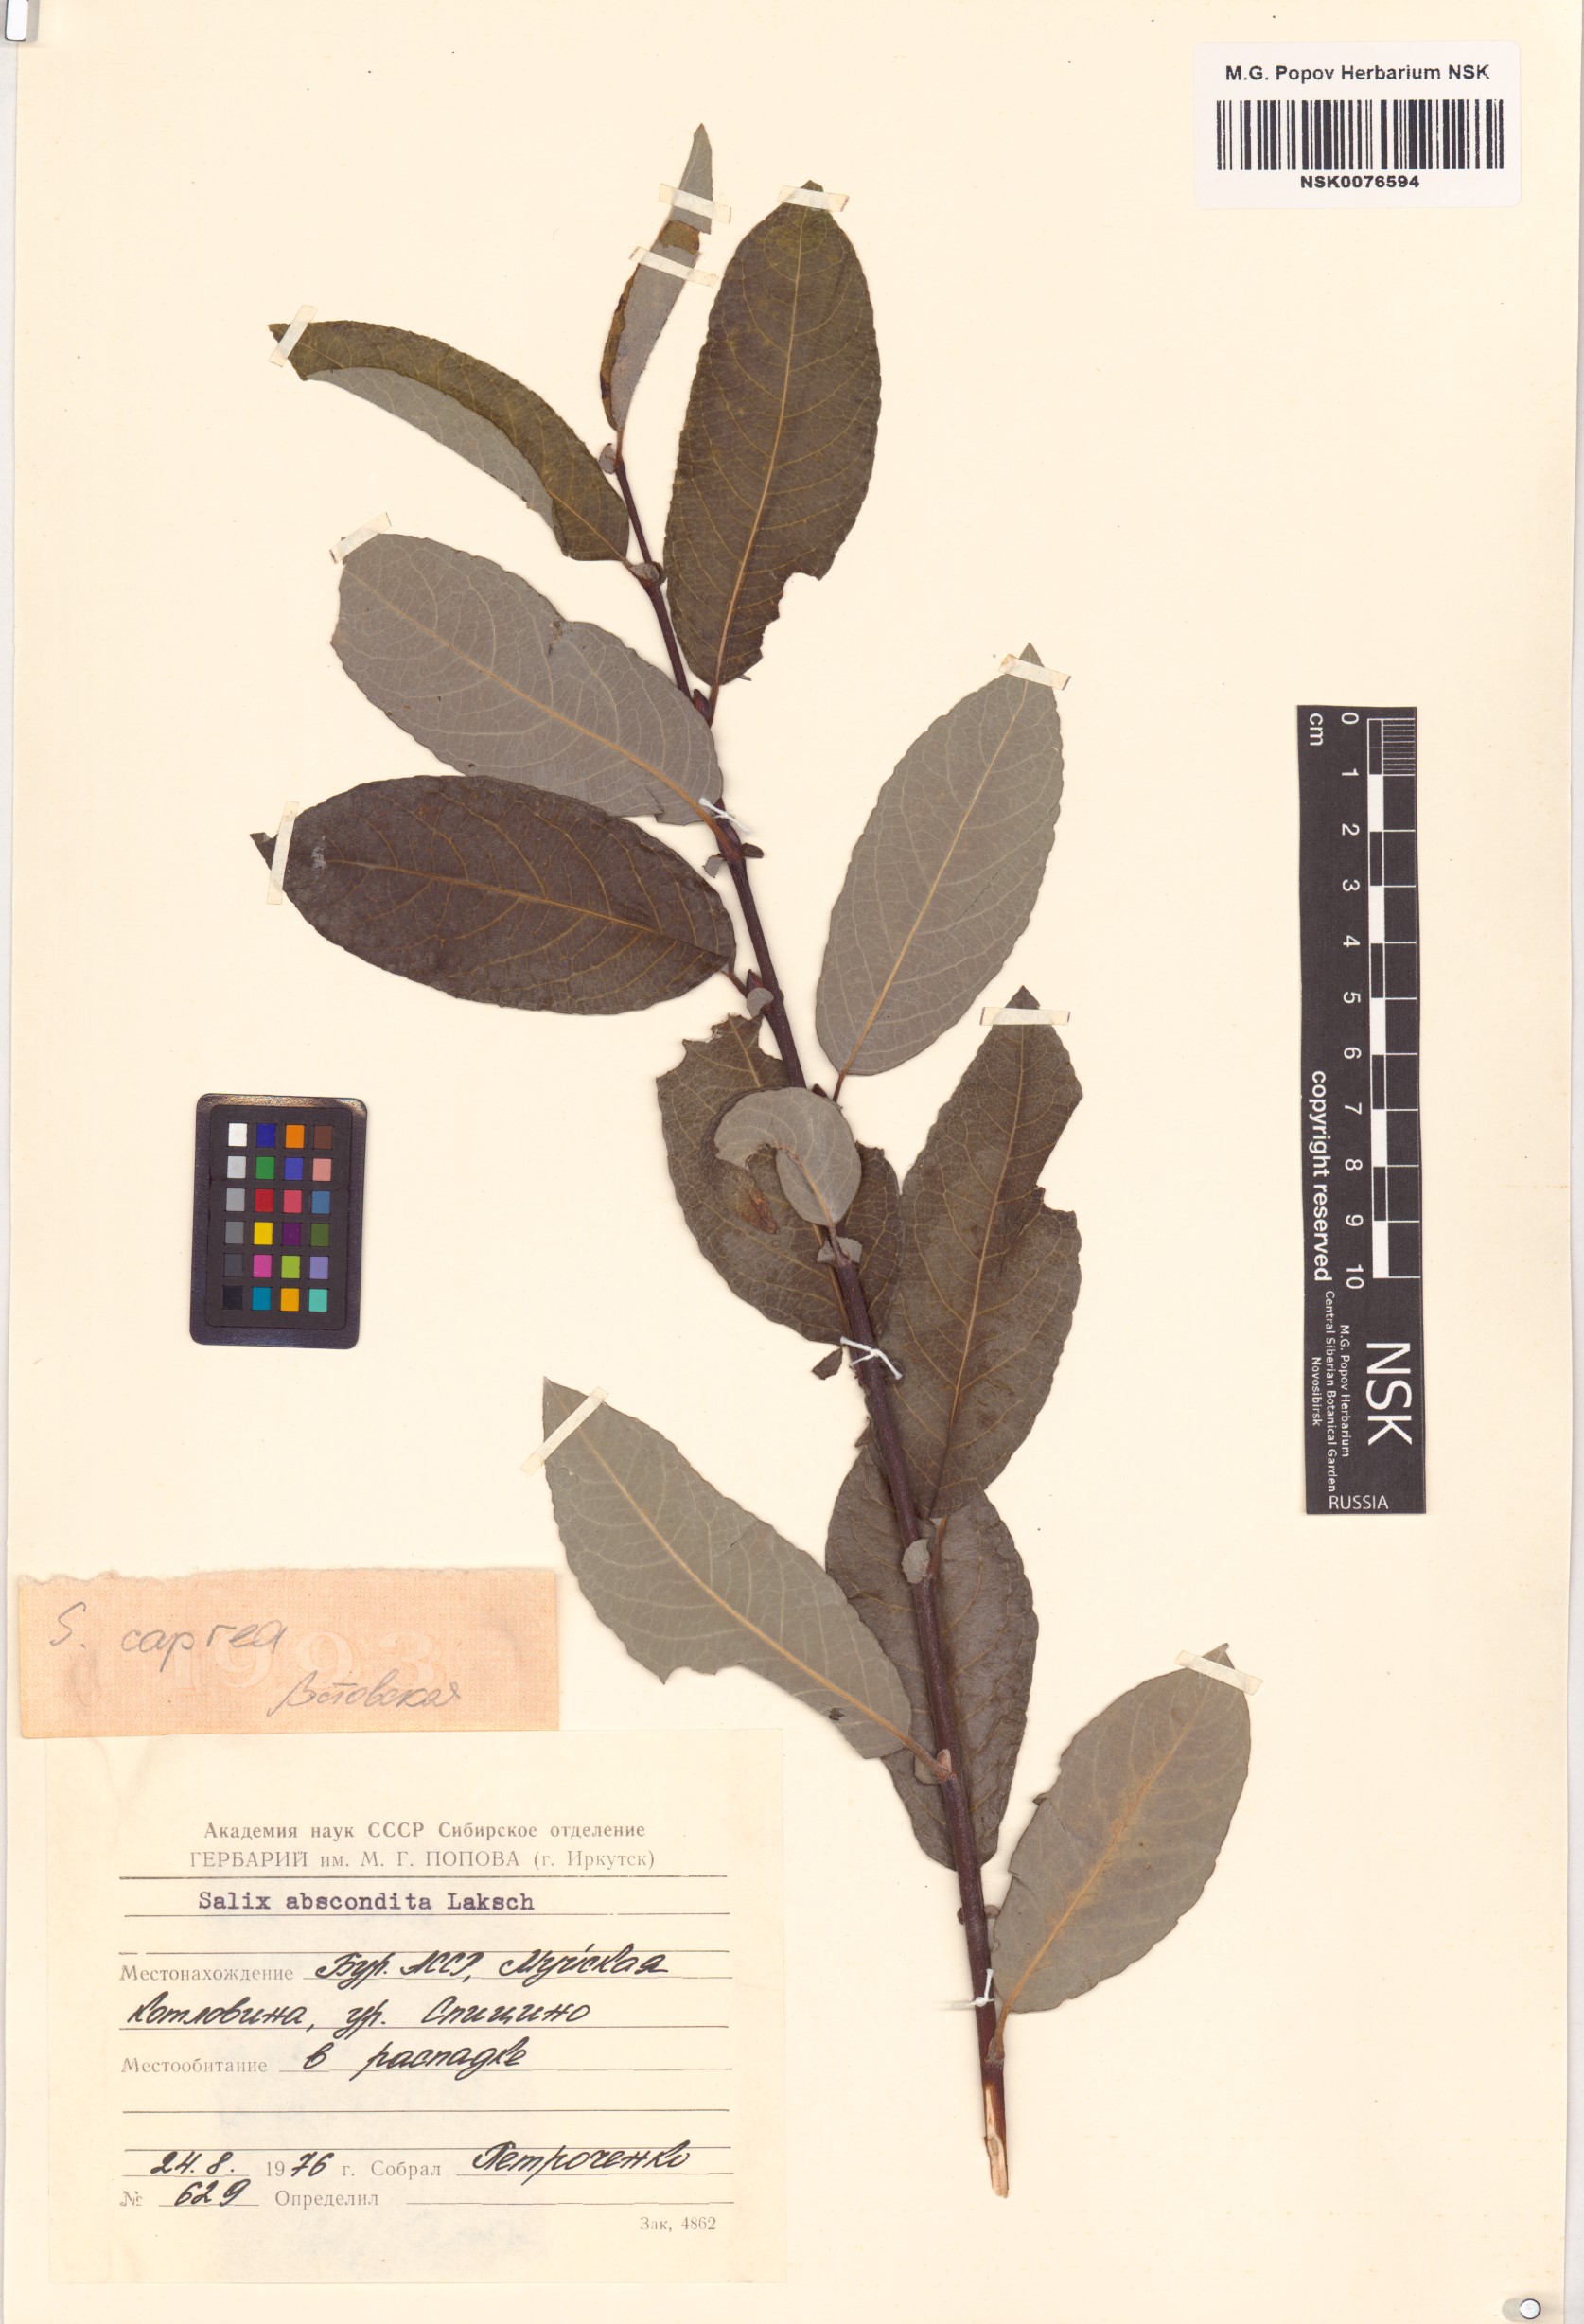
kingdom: Plantae
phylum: Tracheophyta
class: Magnoliopsida
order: Malpighiales
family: Salicaceae
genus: Salix
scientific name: Salix caprea
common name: Goat willow
